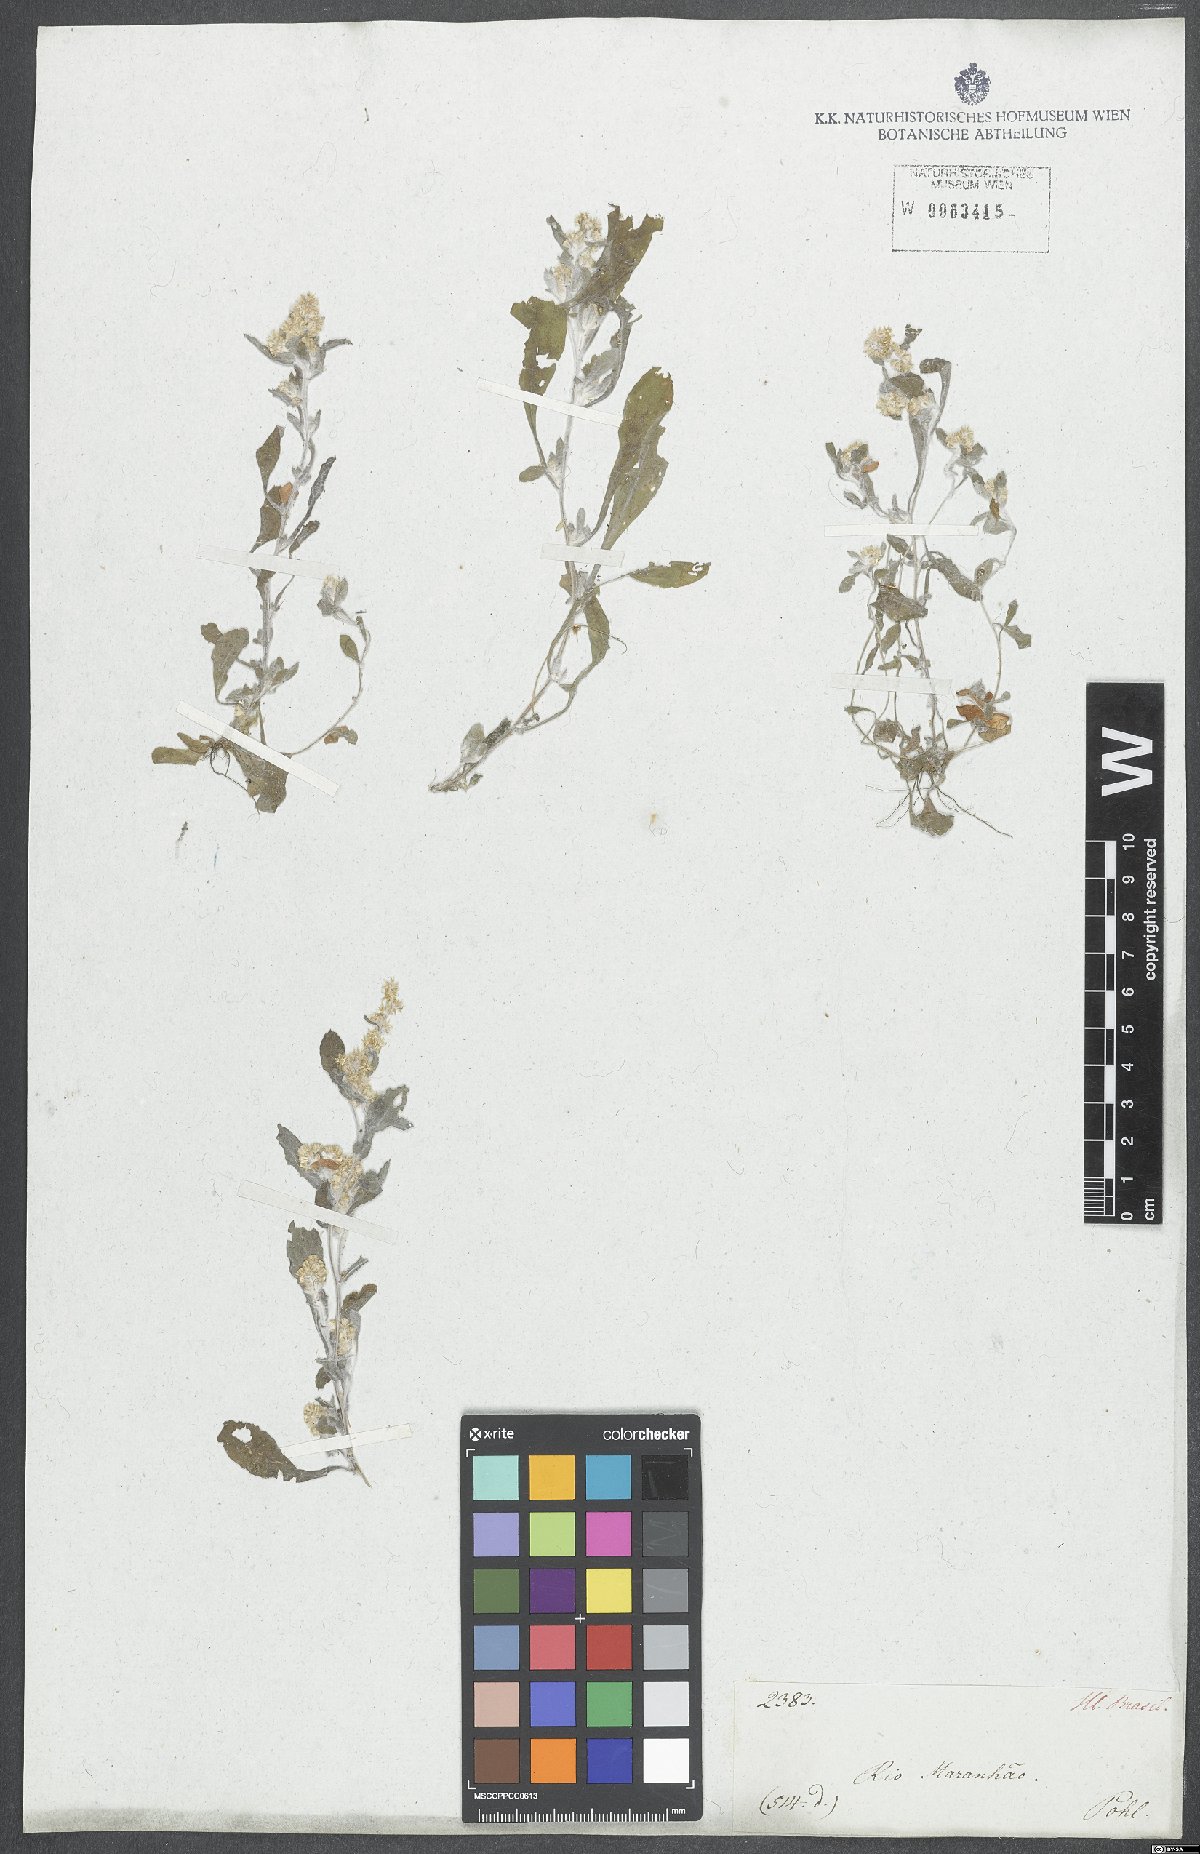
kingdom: Plantae
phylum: Tracheophyta
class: Magnoliopsida
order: Asterales
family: Asteraceae
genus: Gamochaeta
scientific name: Gamochaeta filaginea
